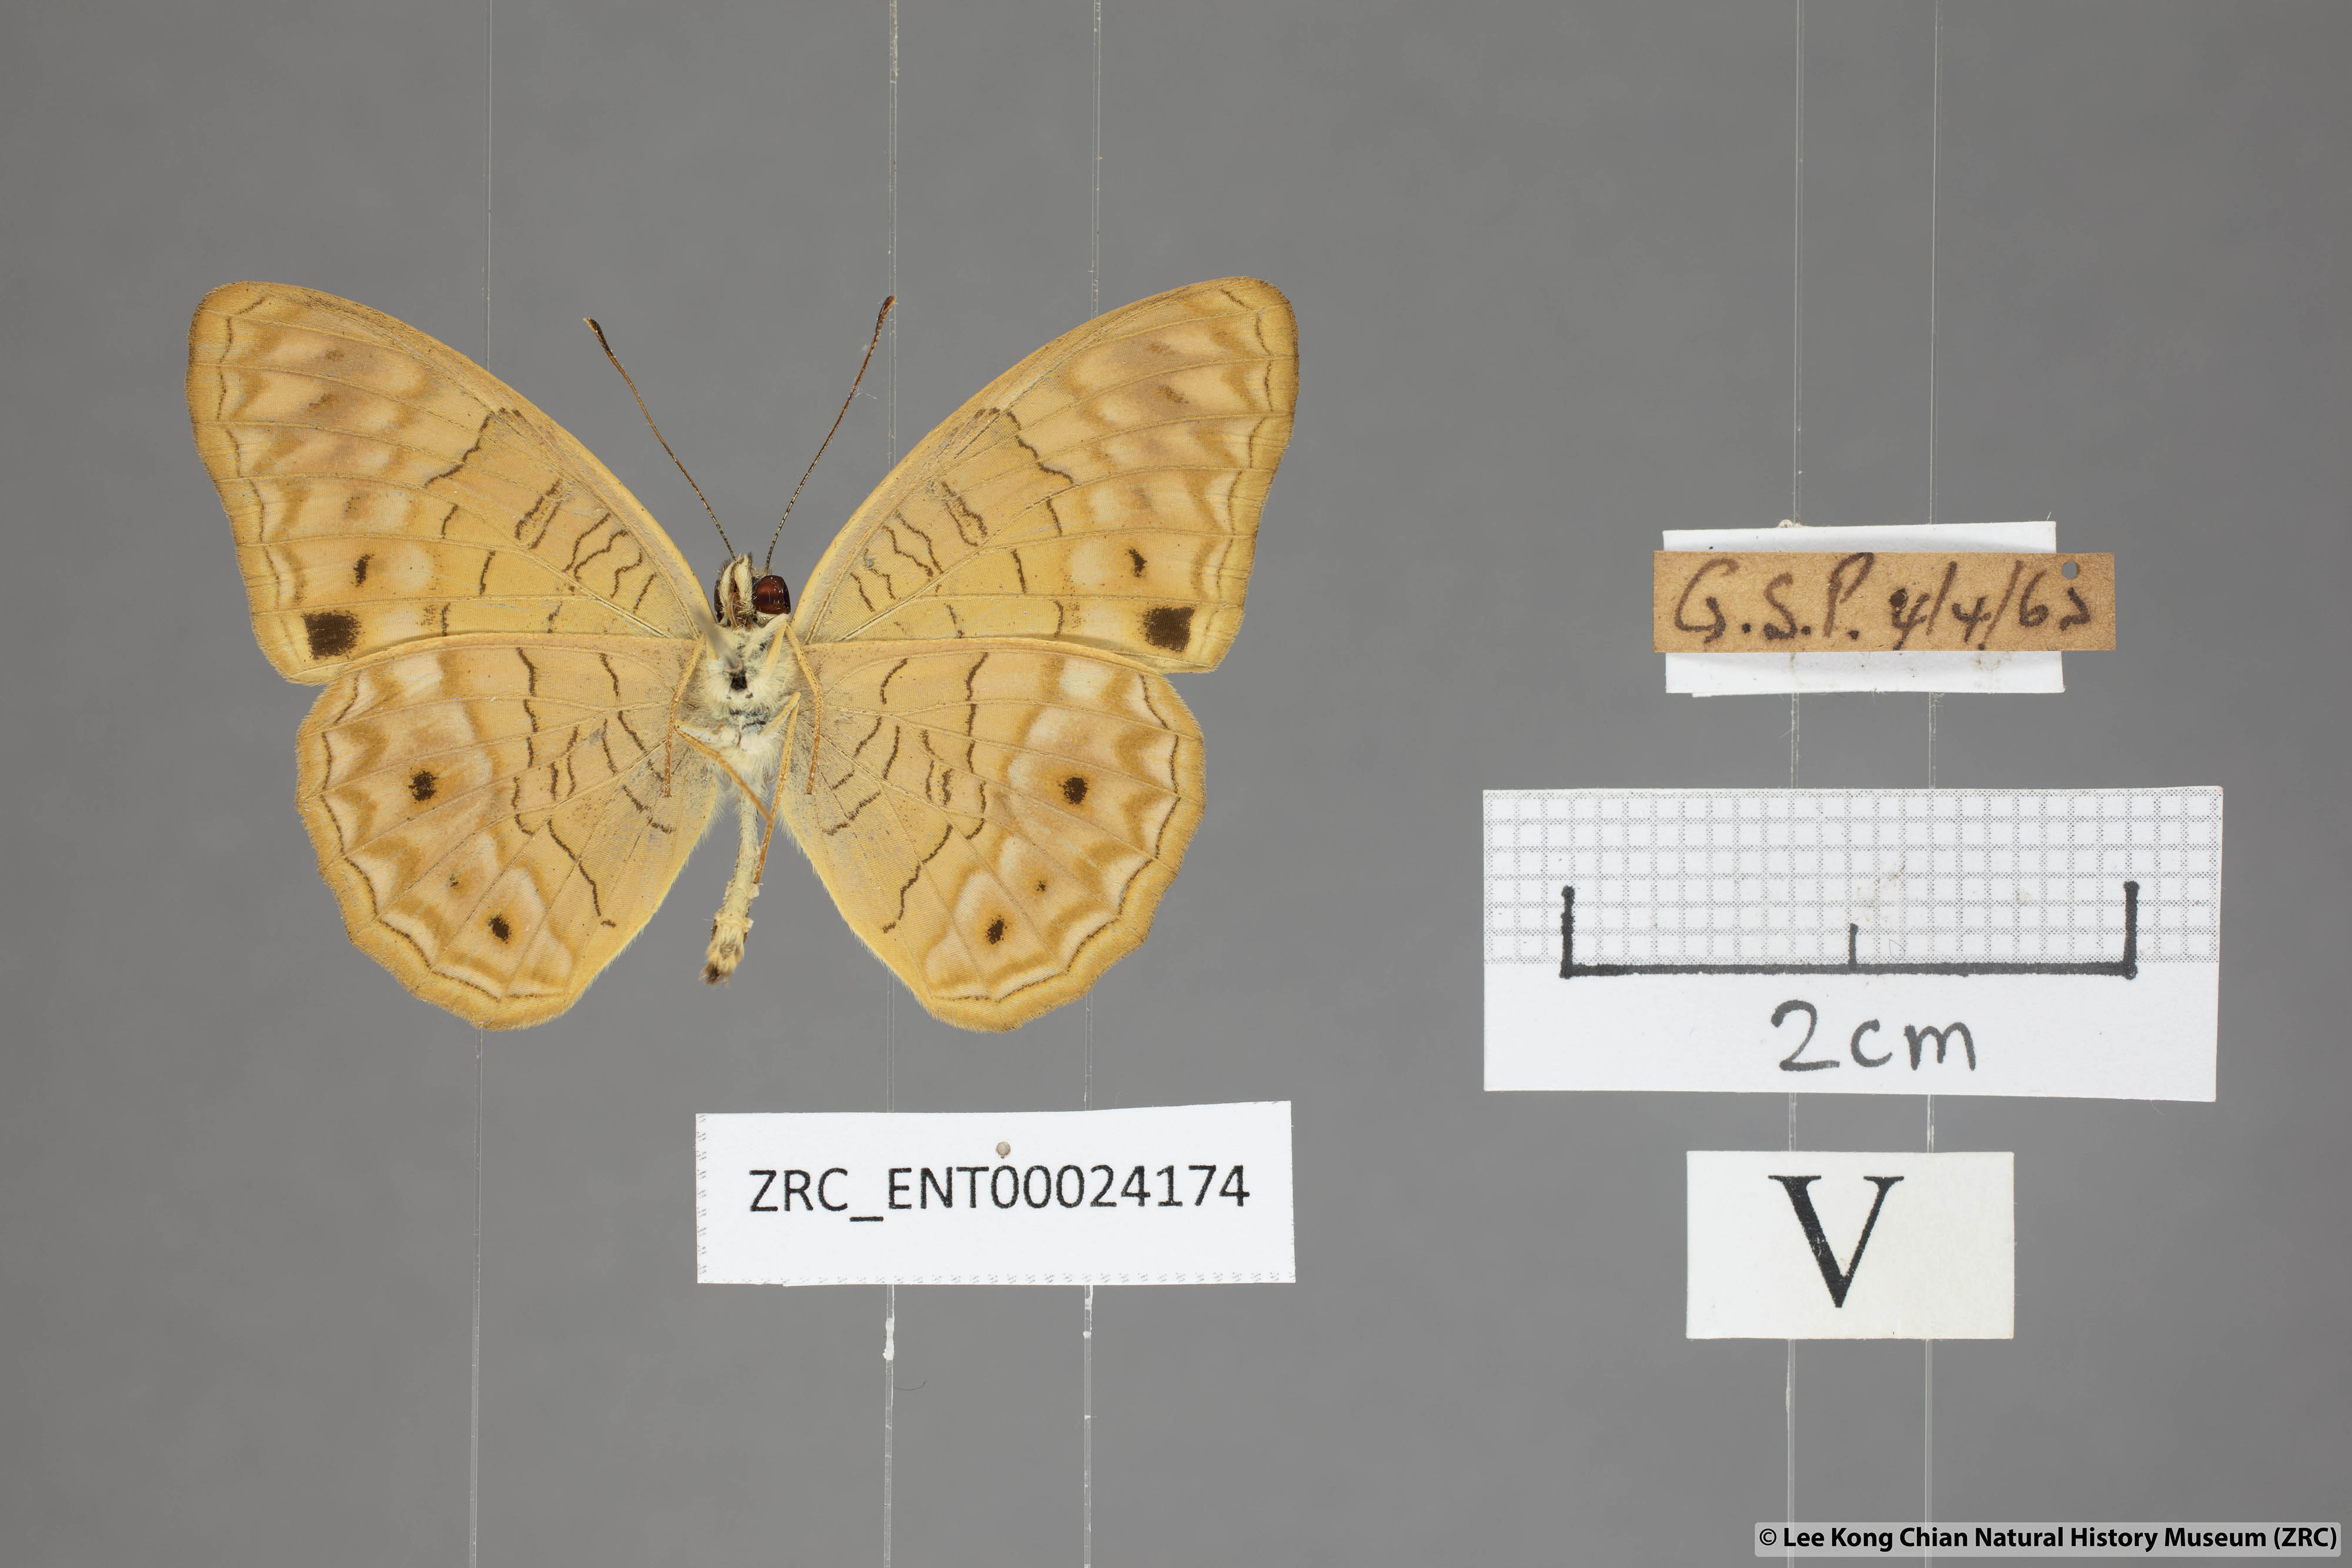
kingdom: Animalia
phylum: Arthropoda
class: Insecta
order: Lepidoptera
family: Nymphalidae
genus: Phalanta
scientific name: Phalanta alcippe
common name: Small leopard
